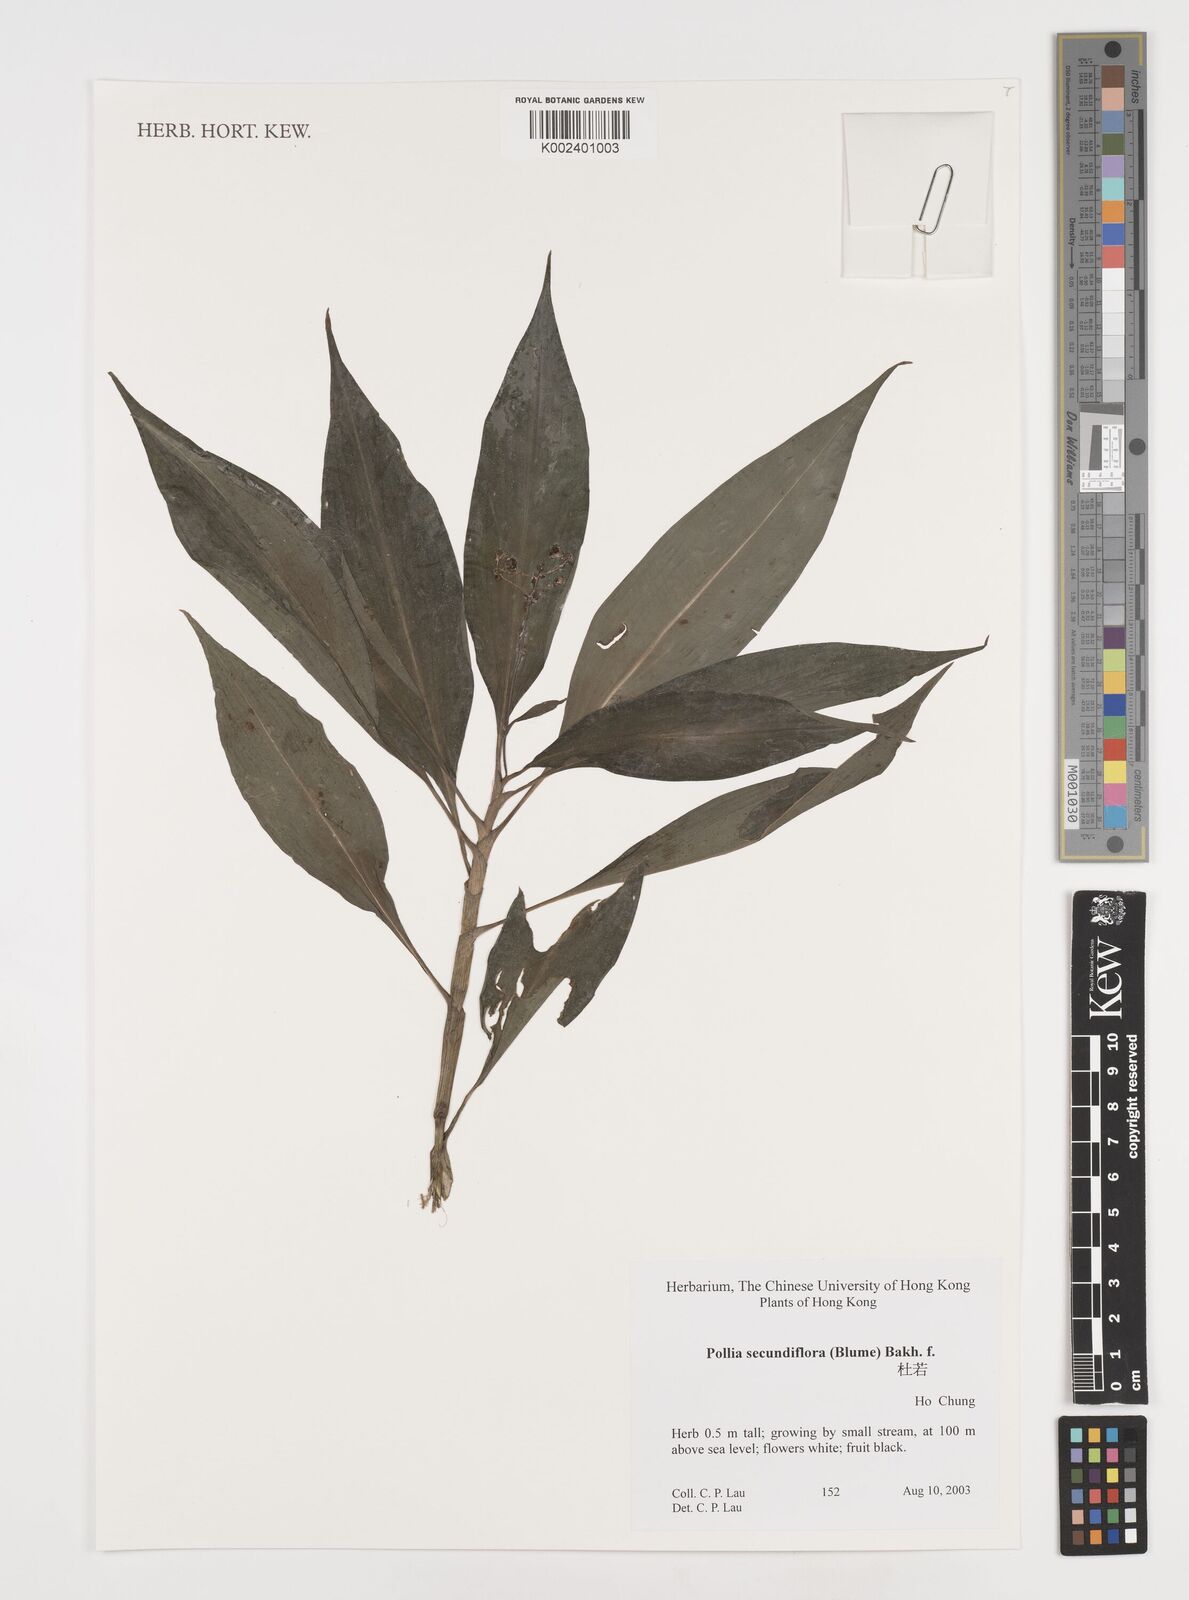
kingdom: Plantae
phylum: Tracheophyta
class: Liliopsida
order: Commelinales
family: Commelinaceae
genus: Pollia
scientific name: Pollia secundiflora
